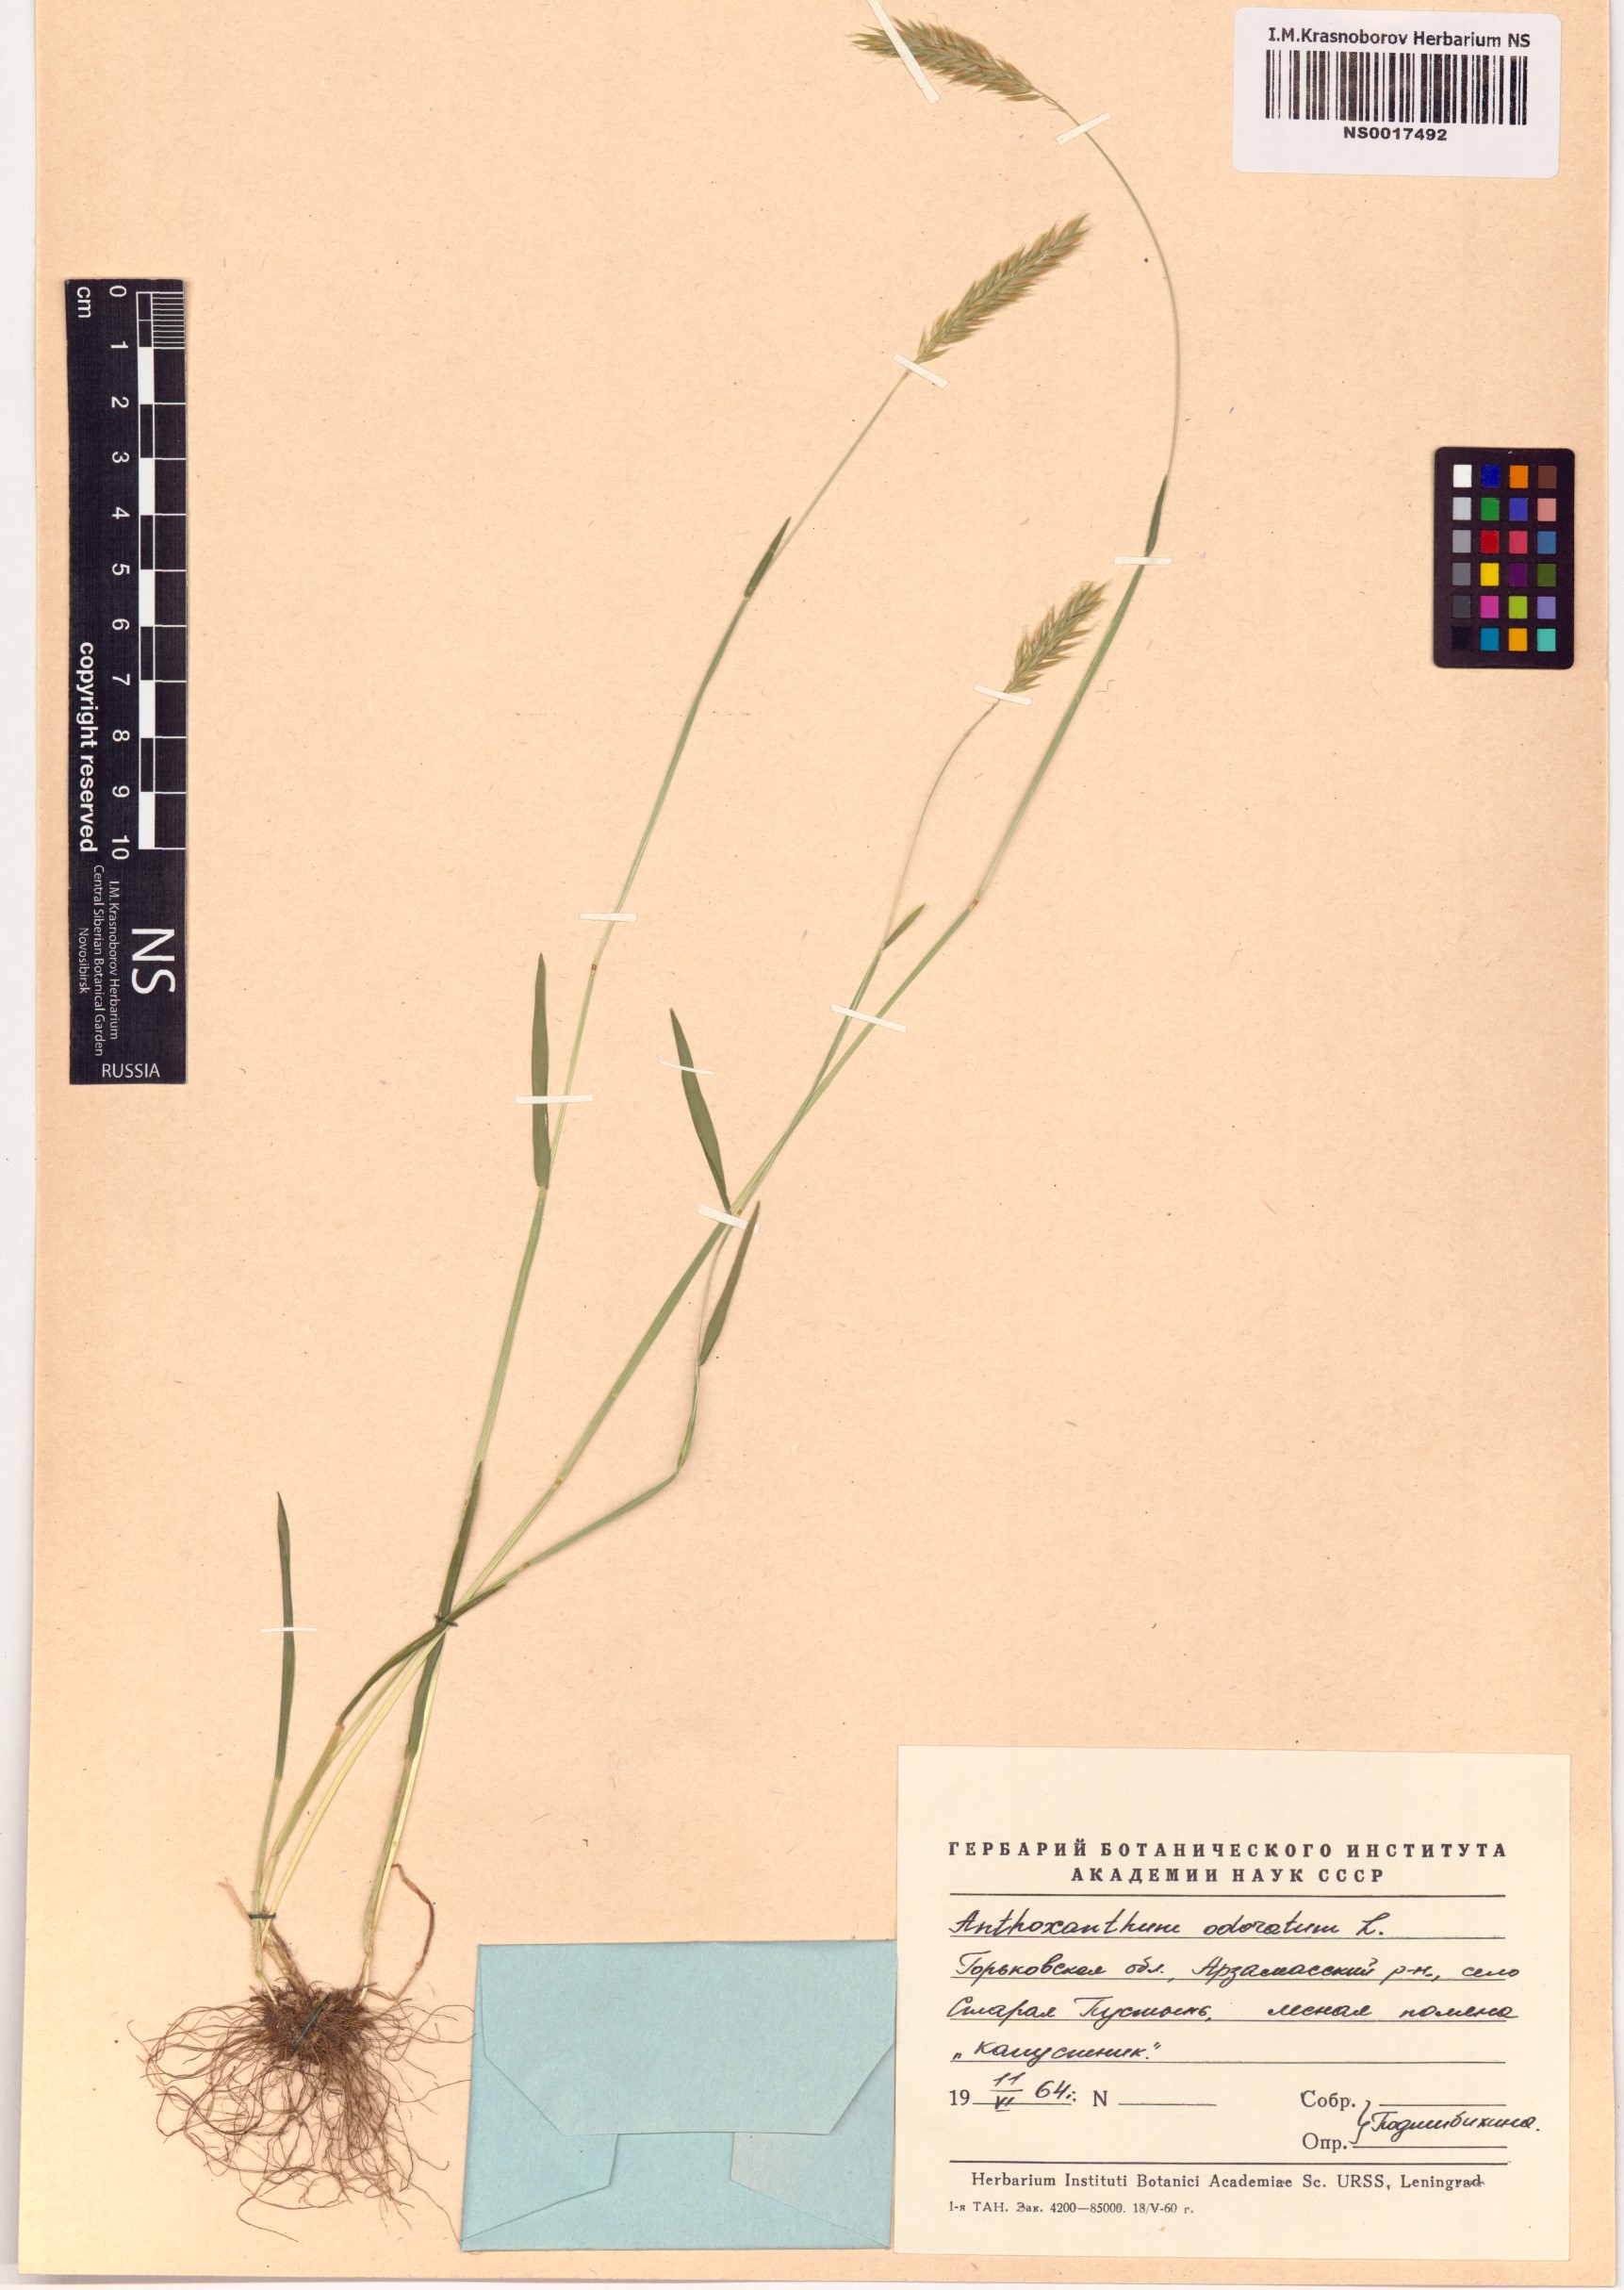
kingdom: Plantae
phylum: Tracheophyta
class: Liliopsida
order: Poales
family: Poaceae
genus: Anthoxanthum
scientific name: Anthoxanthum odoratum
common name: Sweet vernalgrass
